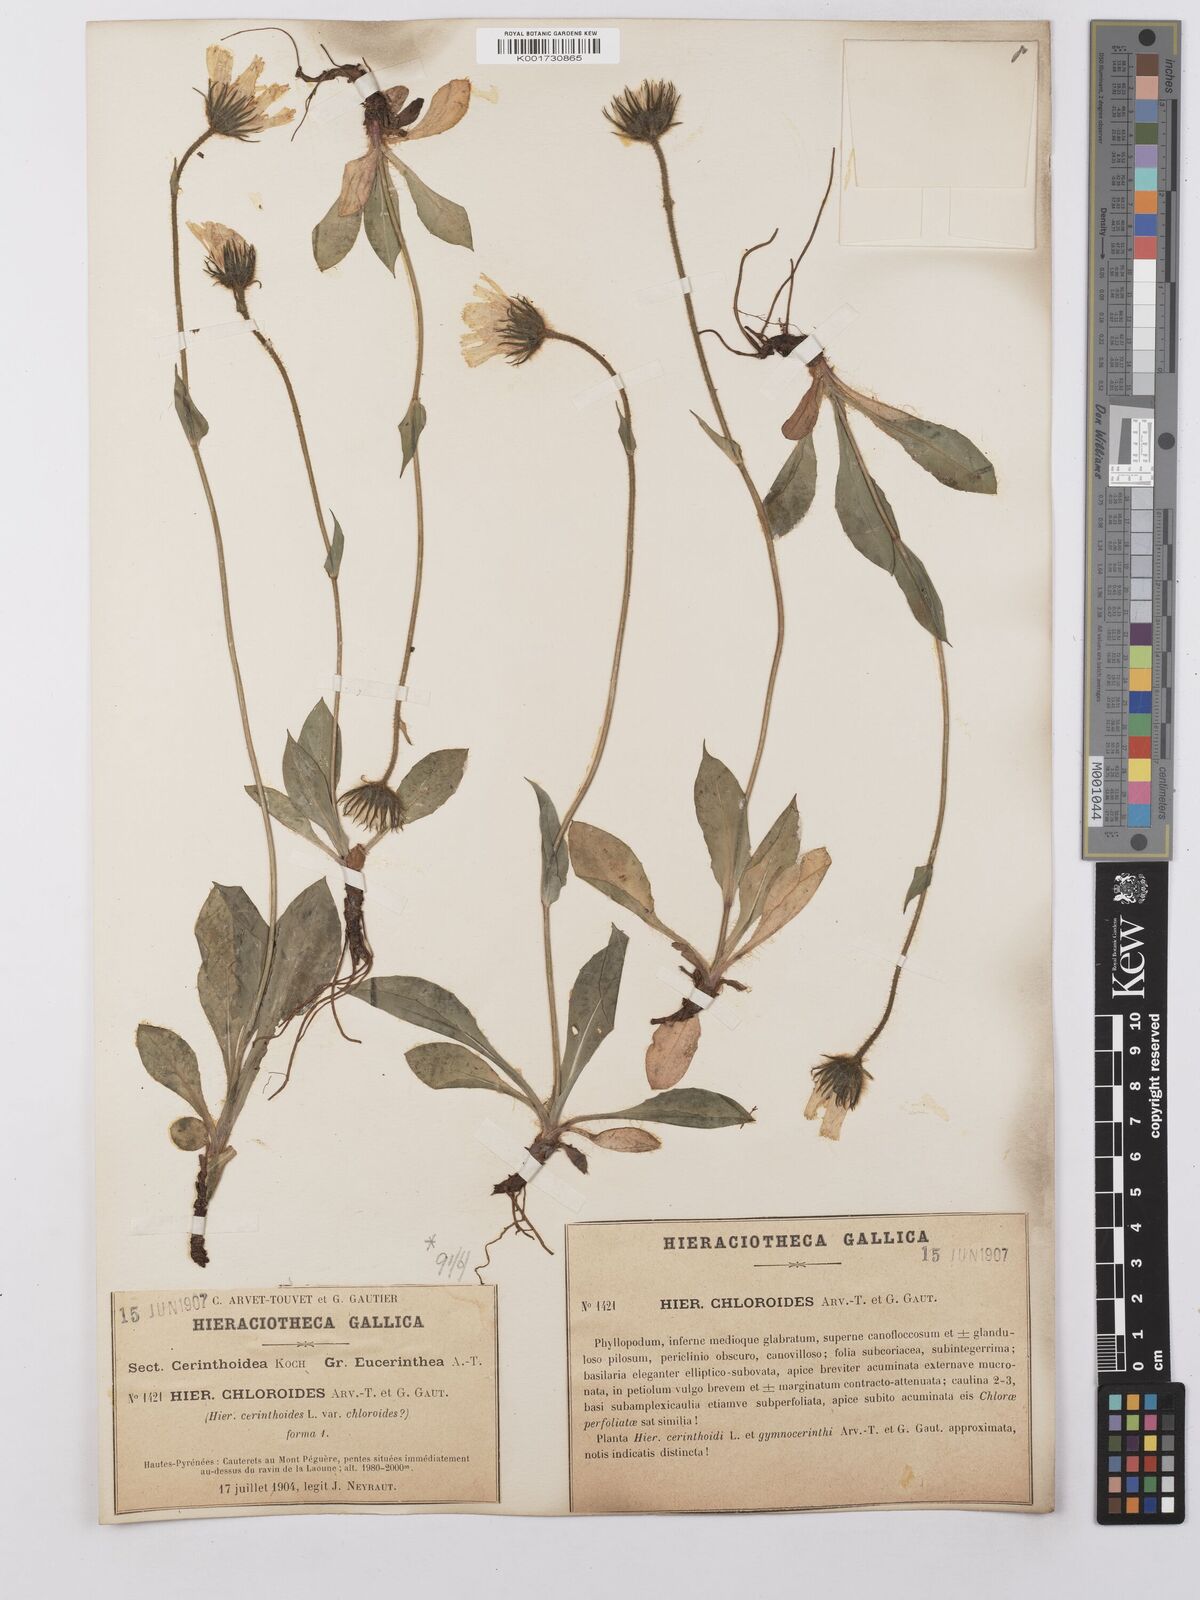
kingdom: Plantae
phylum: Tracheophyta
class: Magnoliopsida
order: Asterales
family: Asteraceae
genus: Hieracium
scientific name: Hieracium ramondii
